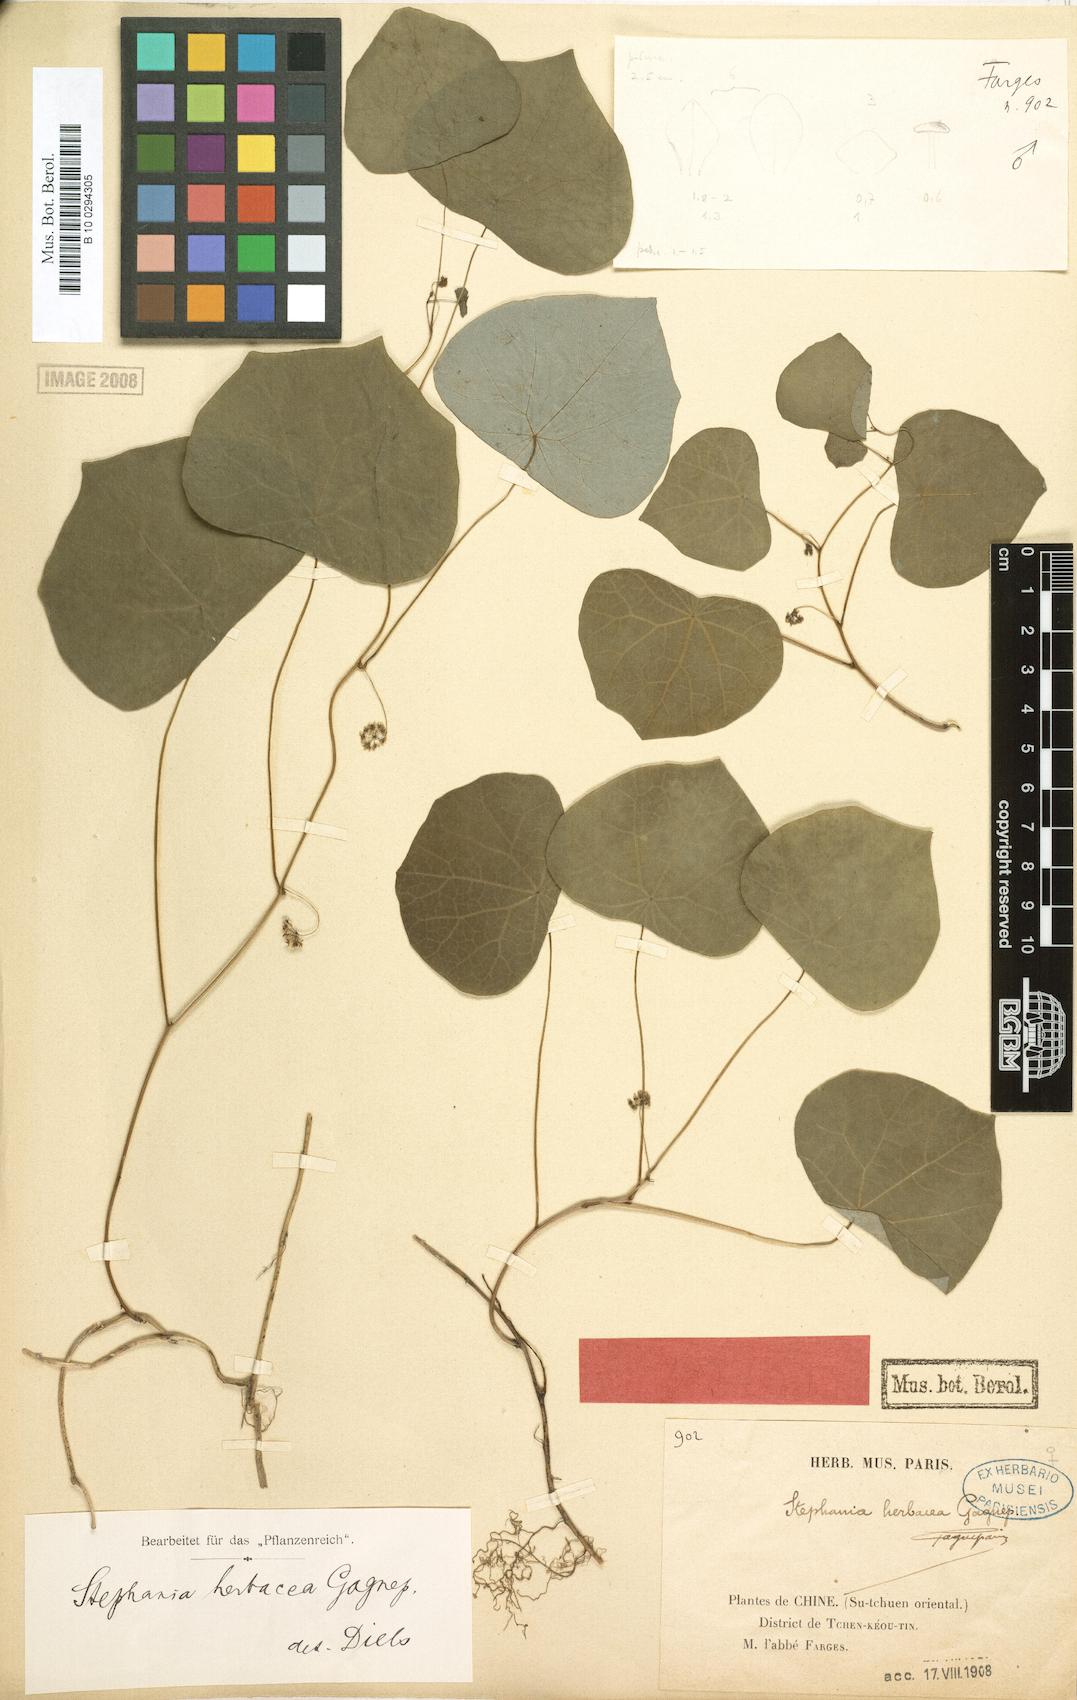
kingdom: Plantae
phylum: Tracheophyta
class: Magnoliopsida
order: Ranunculales
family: Menispermaceae
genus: Stephania
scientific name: Stephania herbacea
